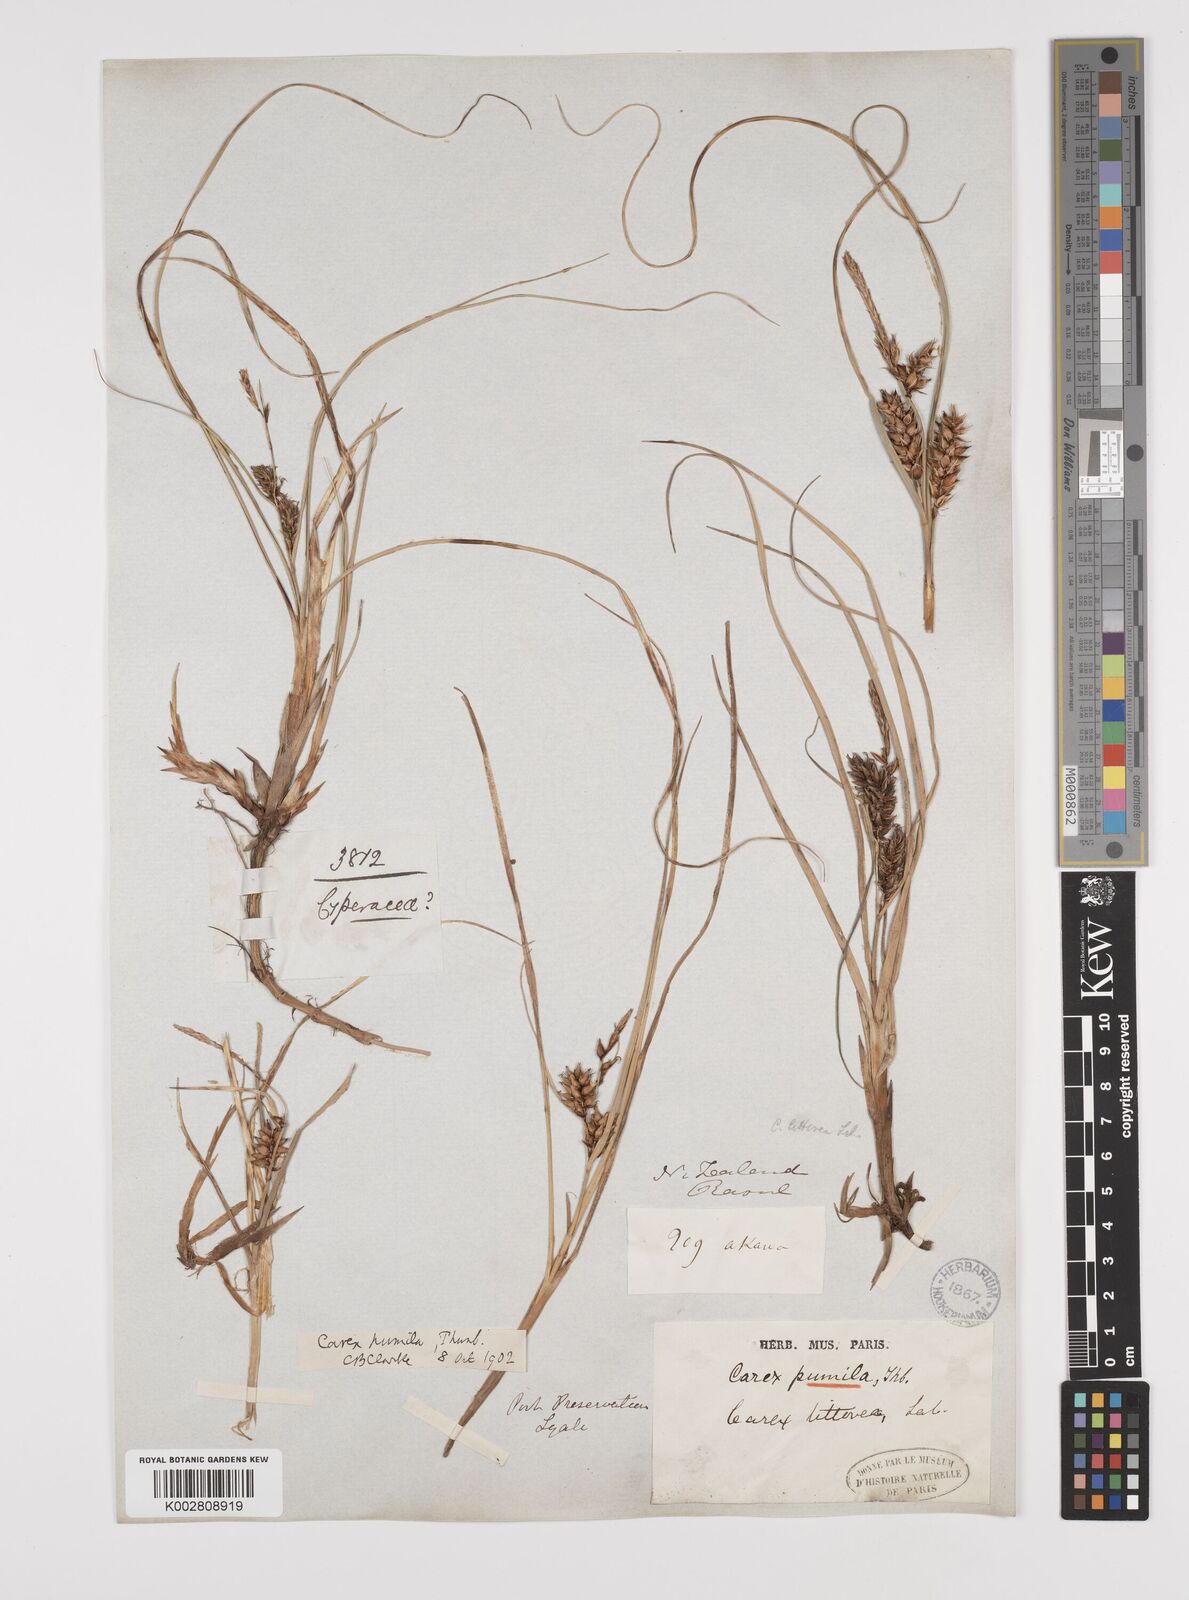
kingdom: Plantae
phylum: Tracheophyta
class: Liliopsida
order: Poales
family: Cyperaceae
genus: Carex
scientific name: Carex pumila
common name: Dwarf sedge
